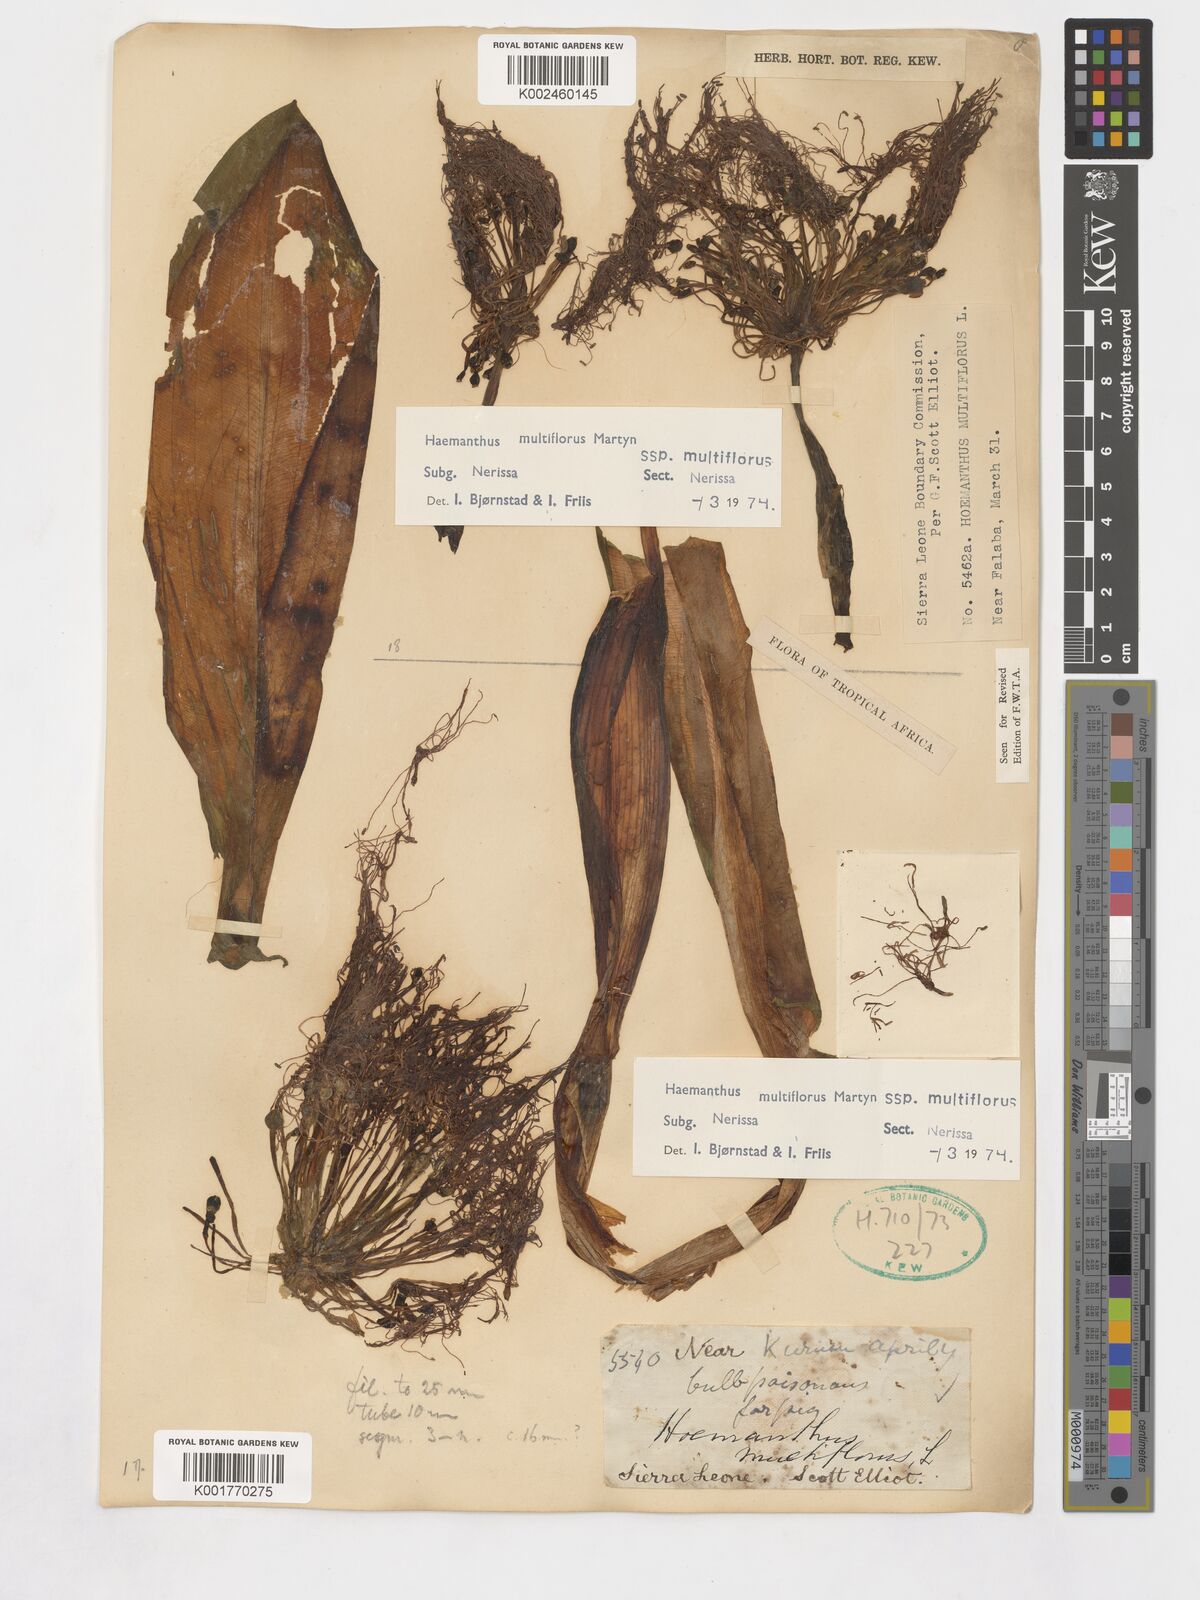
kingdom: Plantae
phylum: Tracheophyta
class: Liliopsida
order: Asparagales
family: Amaryllidaceae
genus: Scadoxus
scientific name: Scadoxus multiflorus
